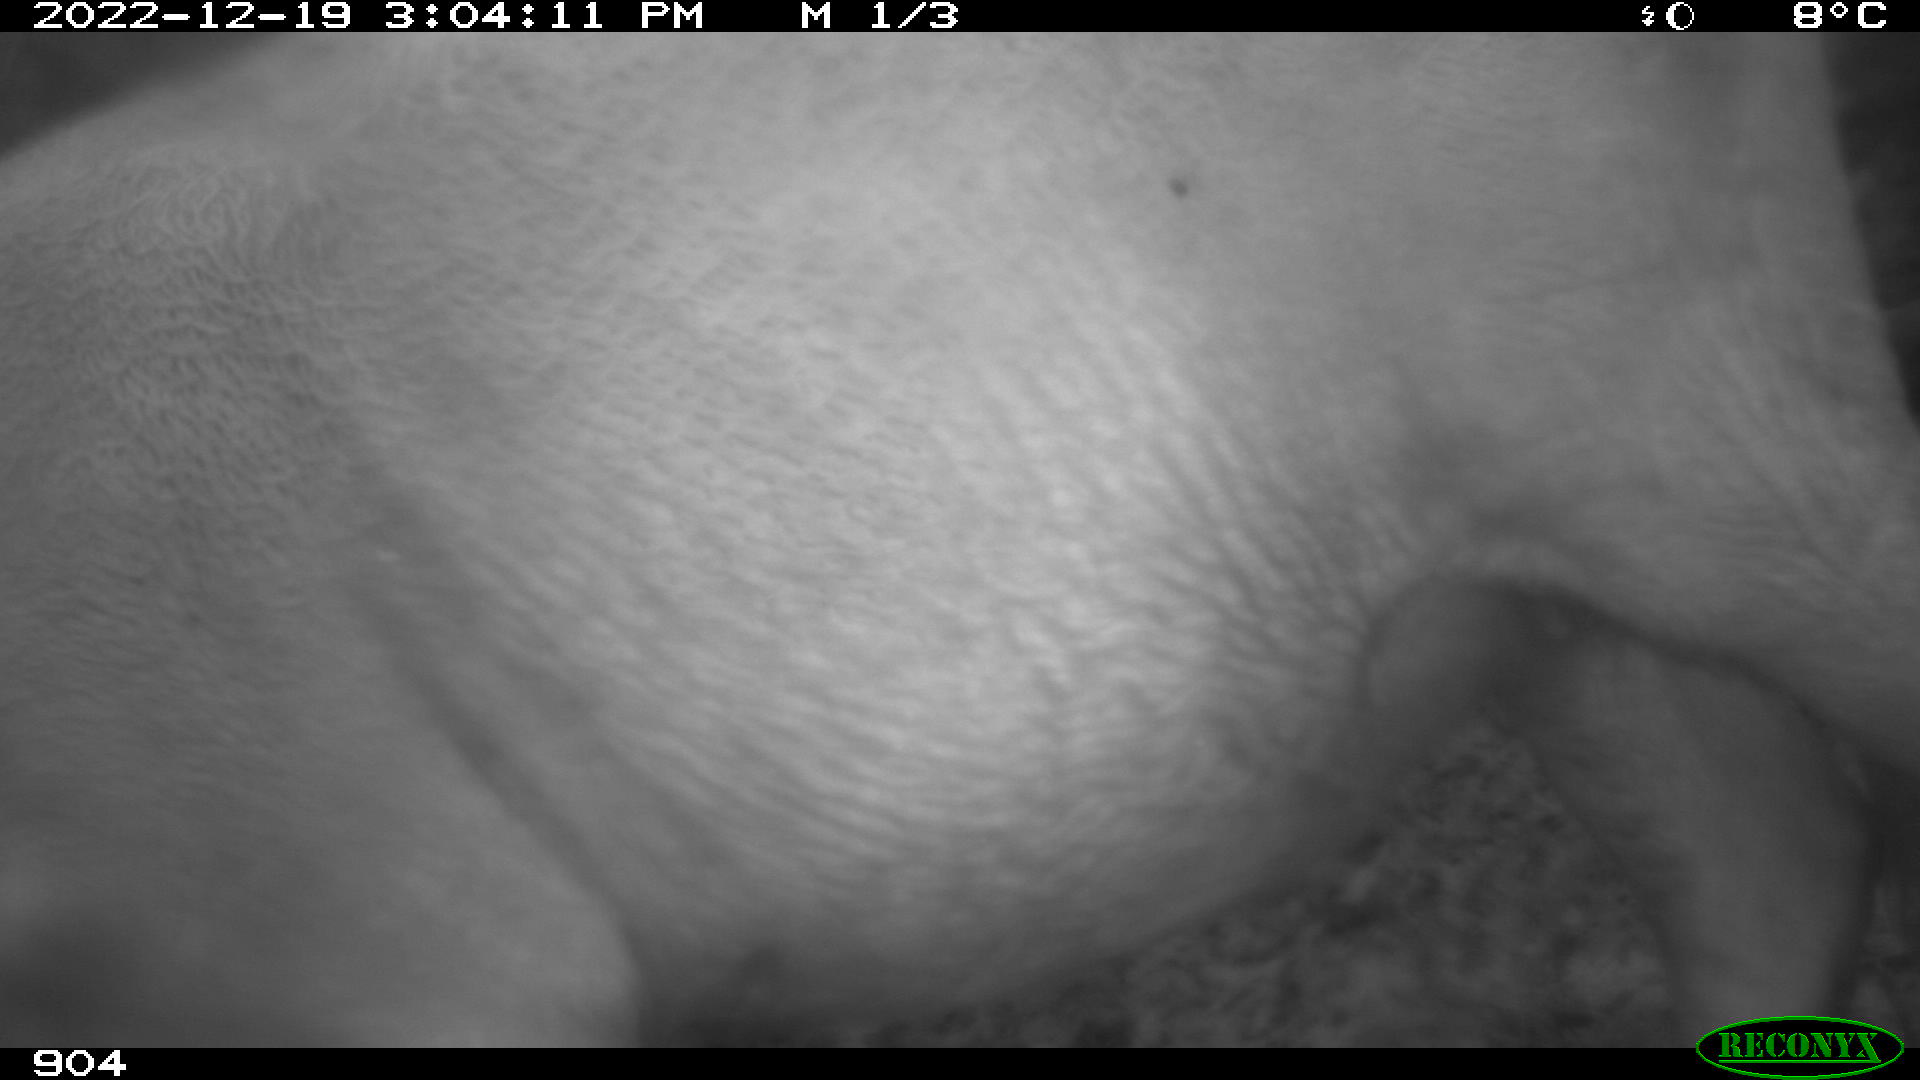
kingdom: Animalia
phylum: Chordata
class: Mammalia
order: Artiodactyla
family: Bovidae
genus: Bos
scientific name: Bos taurus
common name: Domesticated cattle
